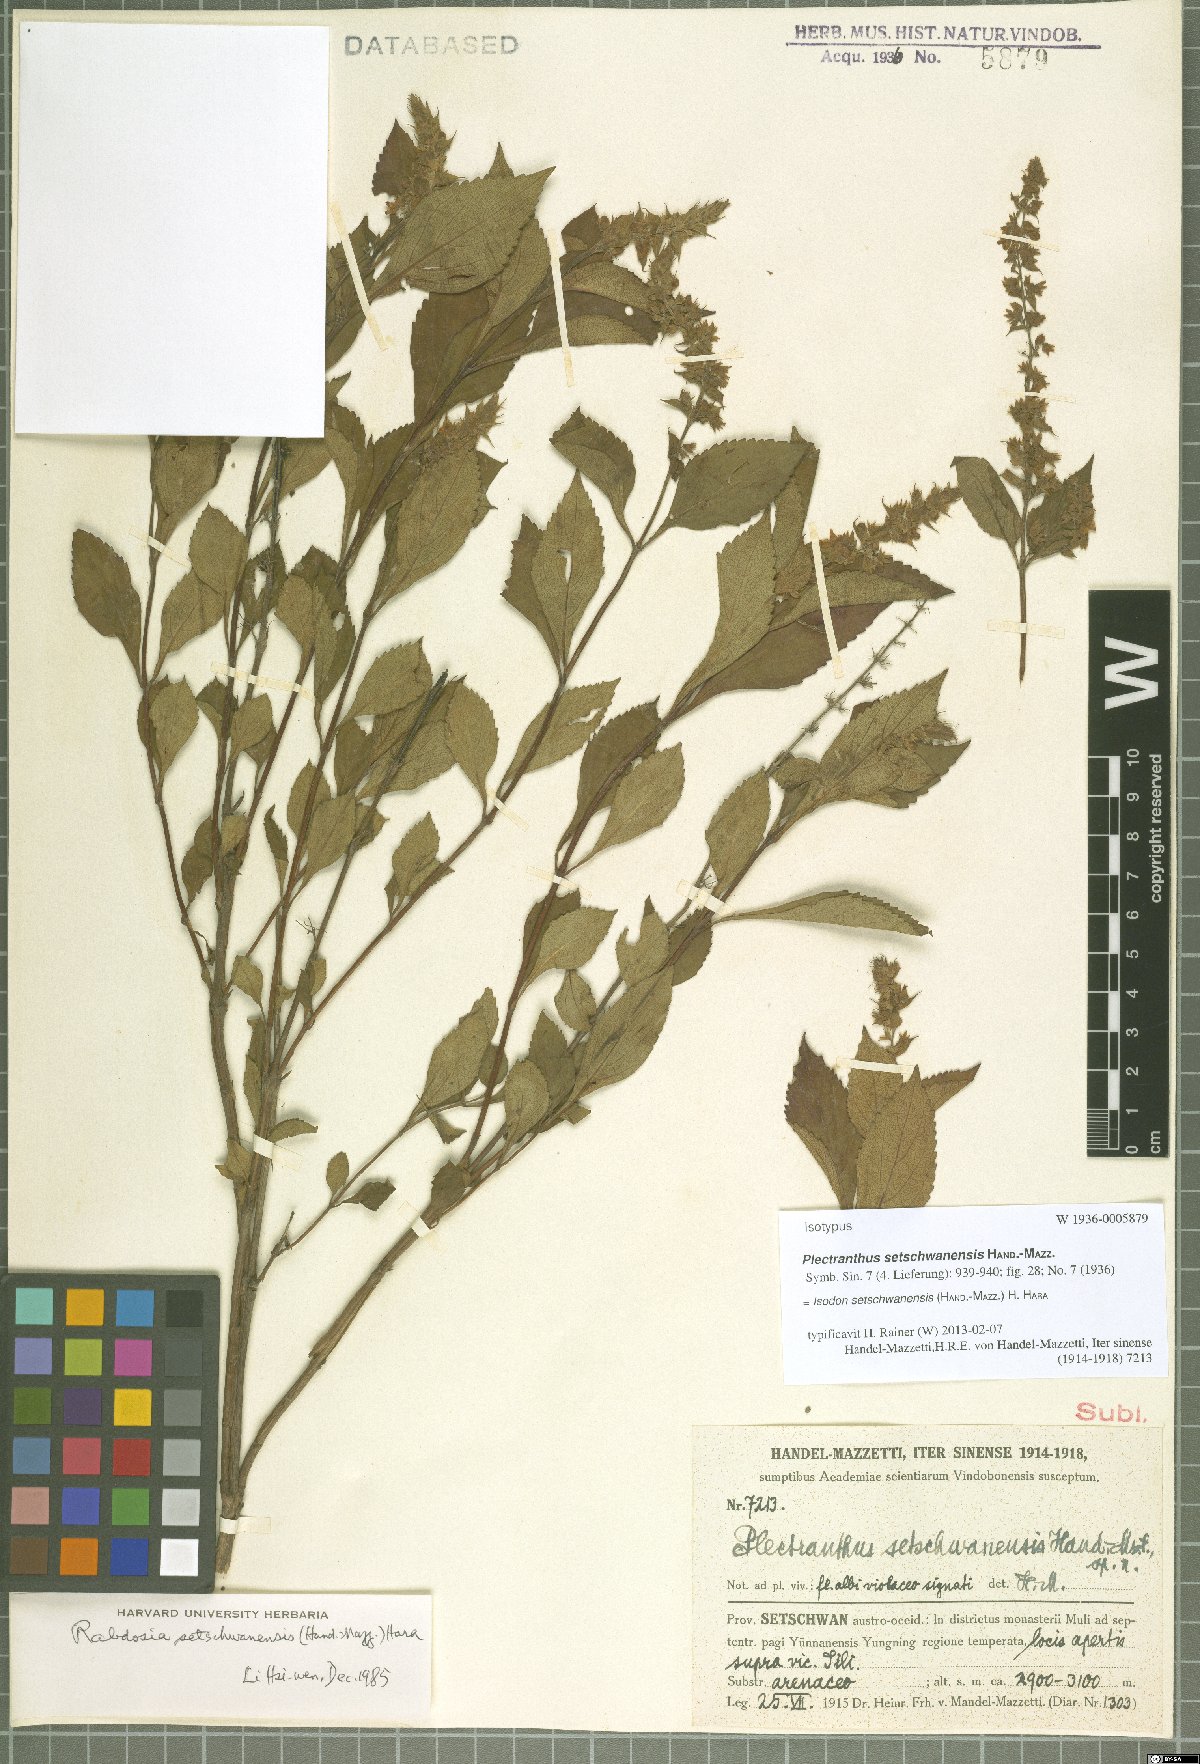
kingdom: Plantae
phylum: Tracheophyta
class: Magnoliopsida
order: Lamiales
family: Lamiaceae
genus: Isodon
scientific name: Isodon setschwanensis
